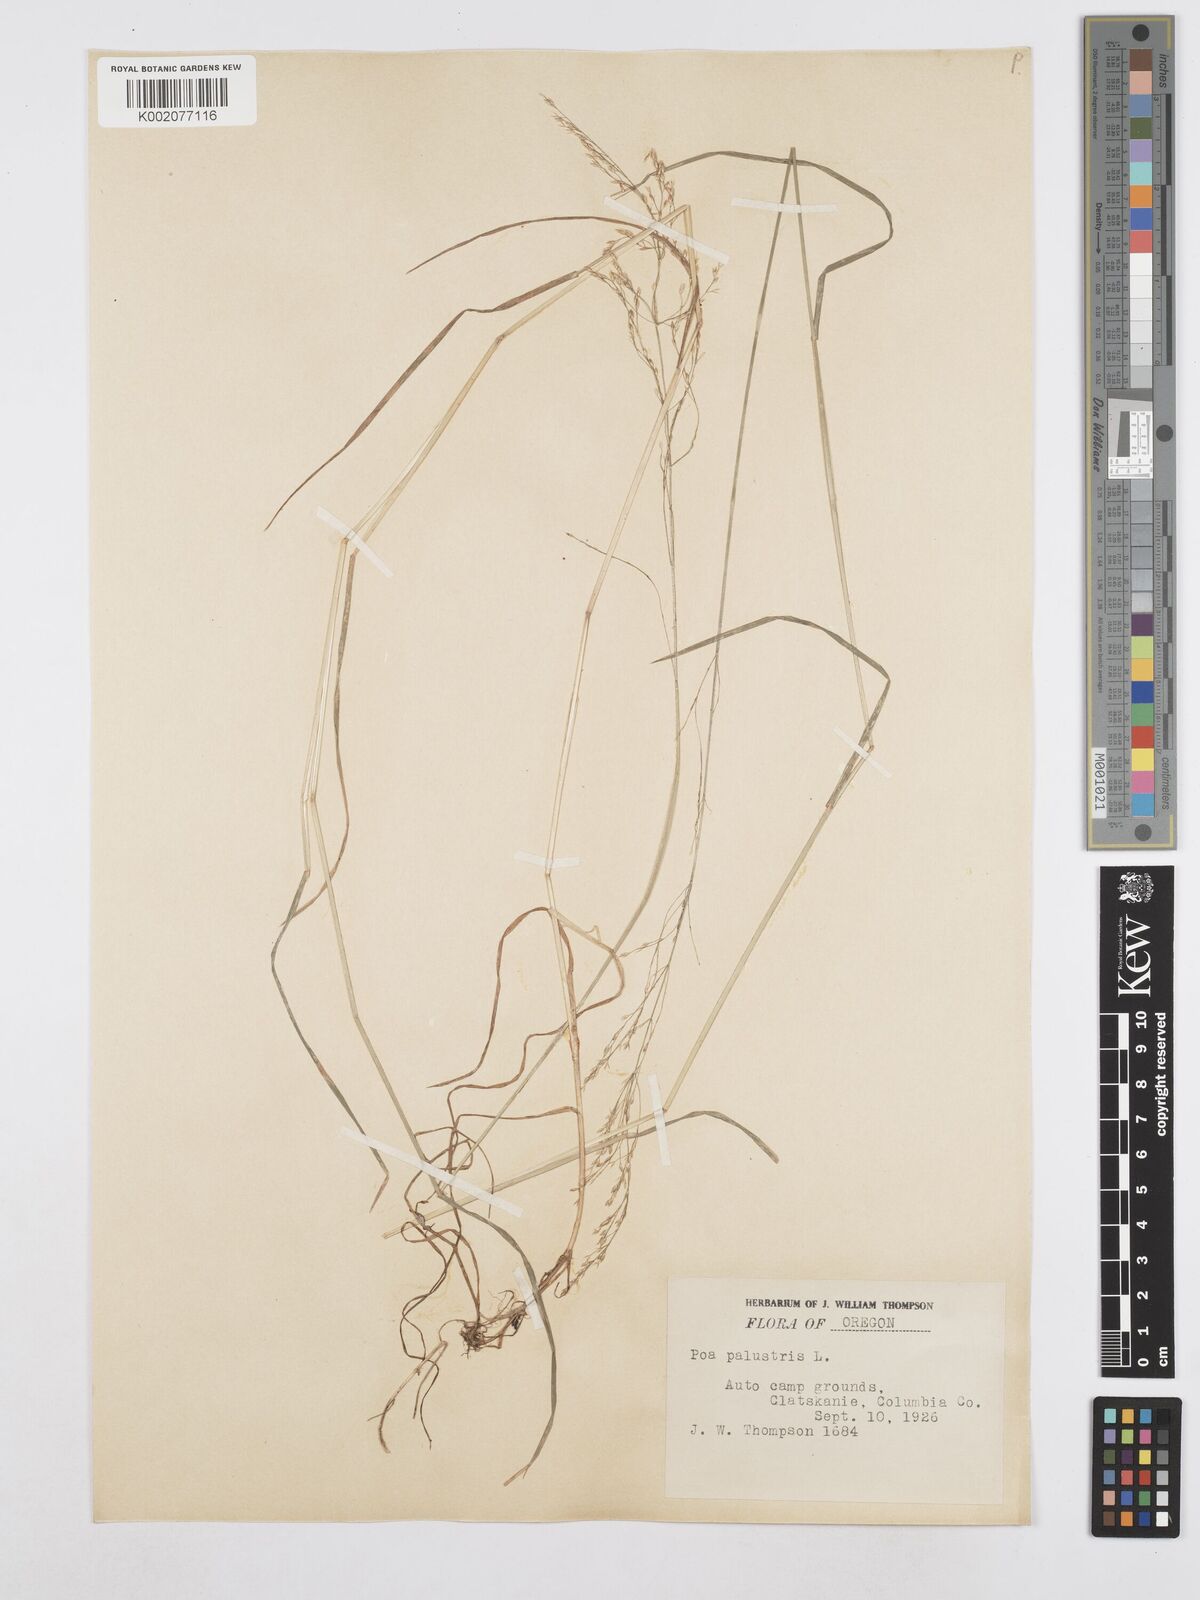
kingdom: Plantae
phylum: Tracheophyta
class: Liliopsida
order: Poales
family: Poaceae
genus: Poa
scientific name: Poa palustris
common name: Swamp meadow-grass
